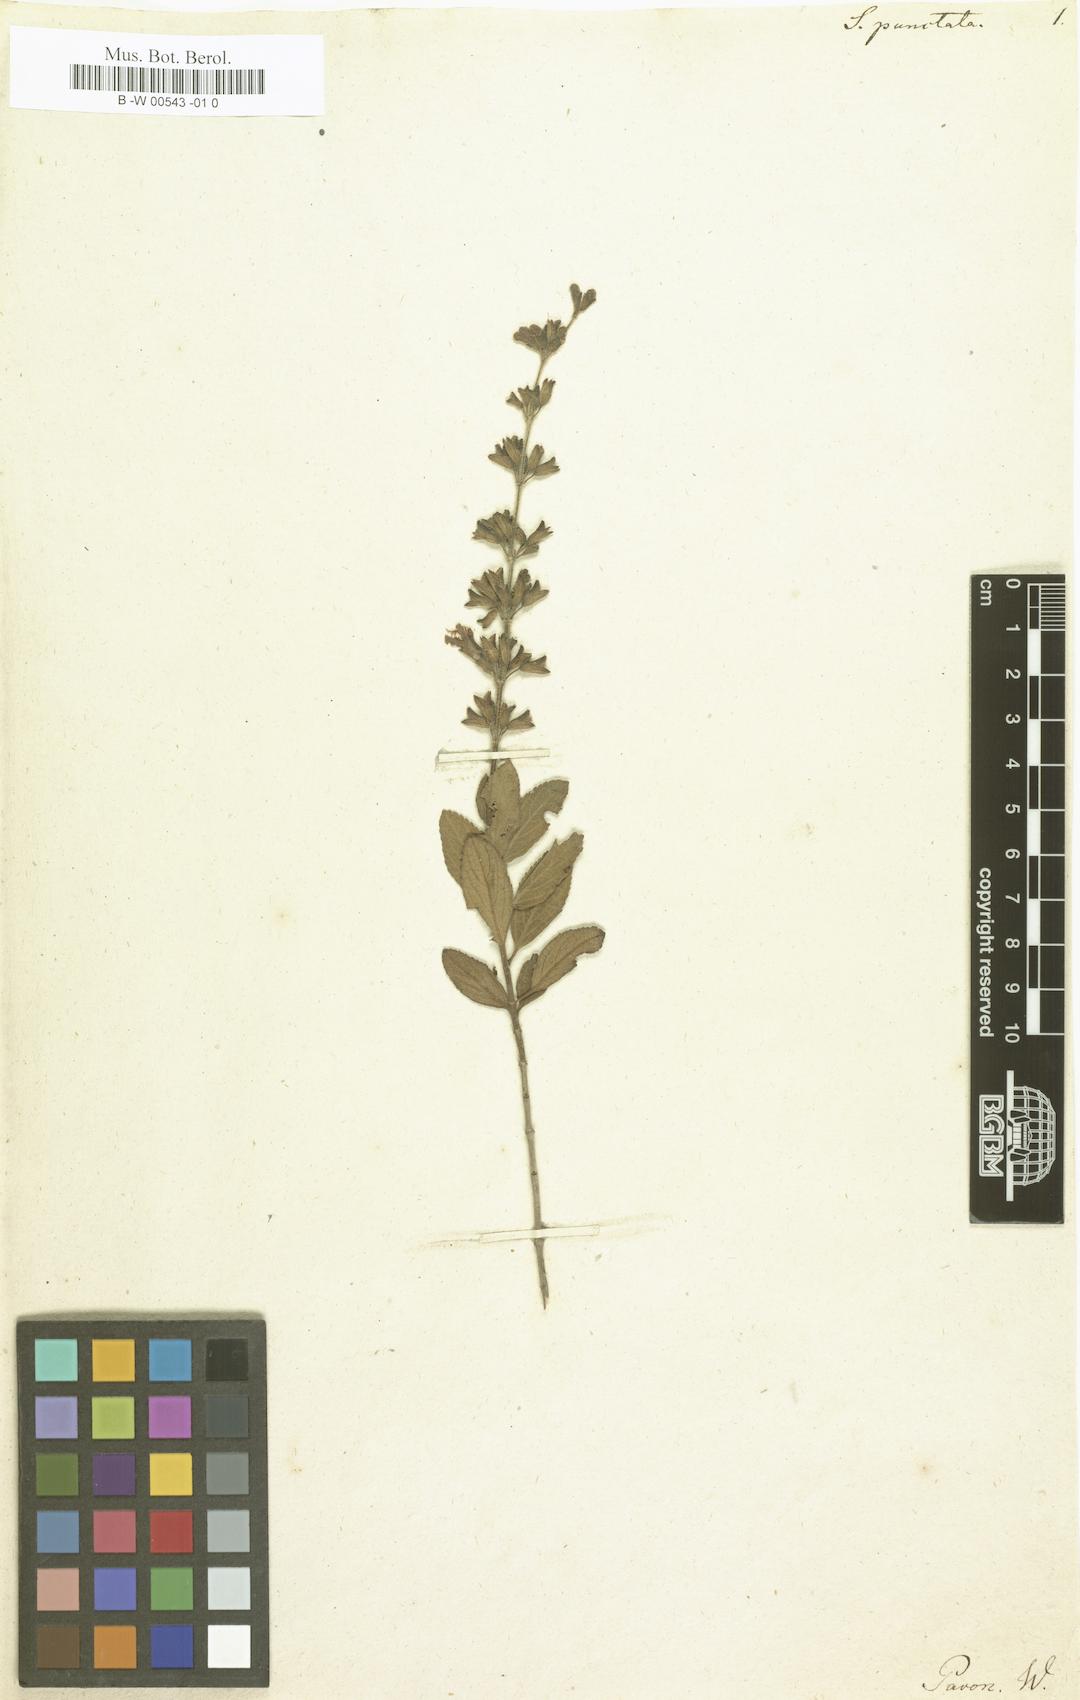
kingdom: Plantae
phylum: Tracheophyta
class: Magnoliopsida
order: Lamiales
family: Lamiaceae
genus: Salvia
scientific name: Salvia punctata
